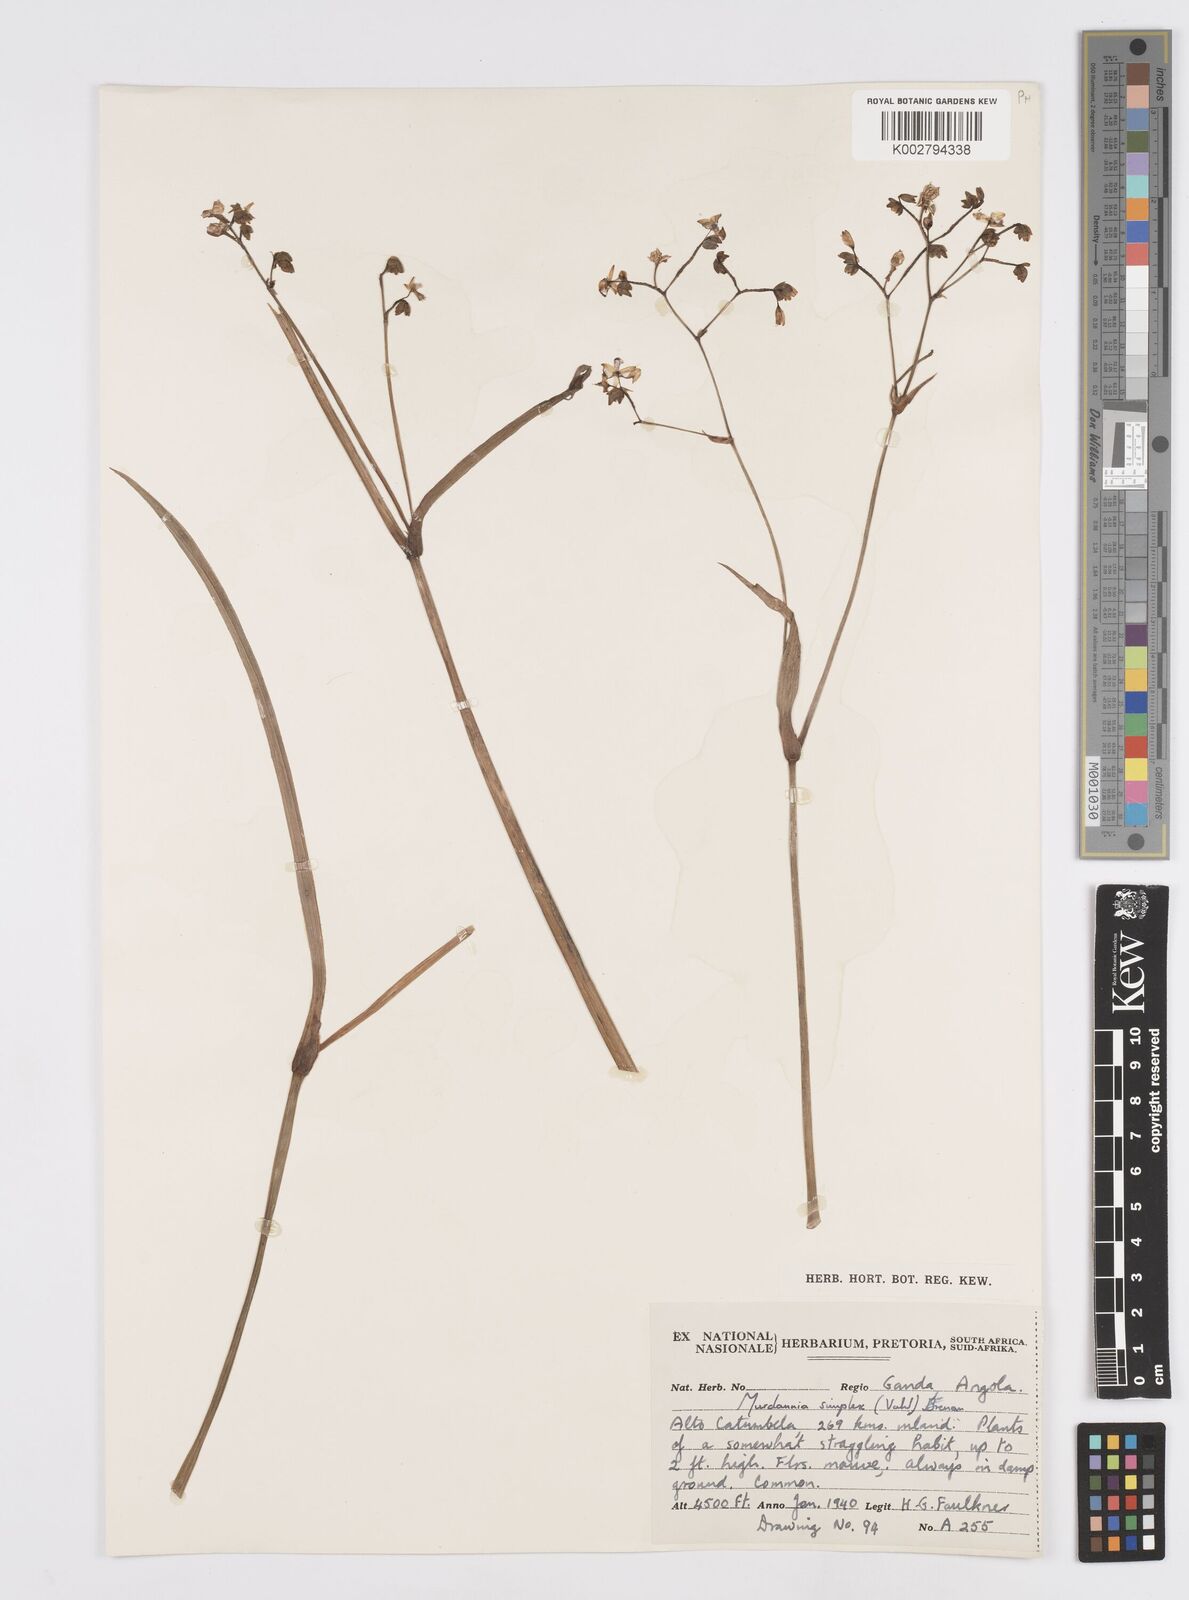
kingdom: Plantae
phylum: Tracheophyta
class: Liliopsida
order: Commelinales
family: Commelinaceae
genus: Murdannia
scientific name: Murdannia simplex
